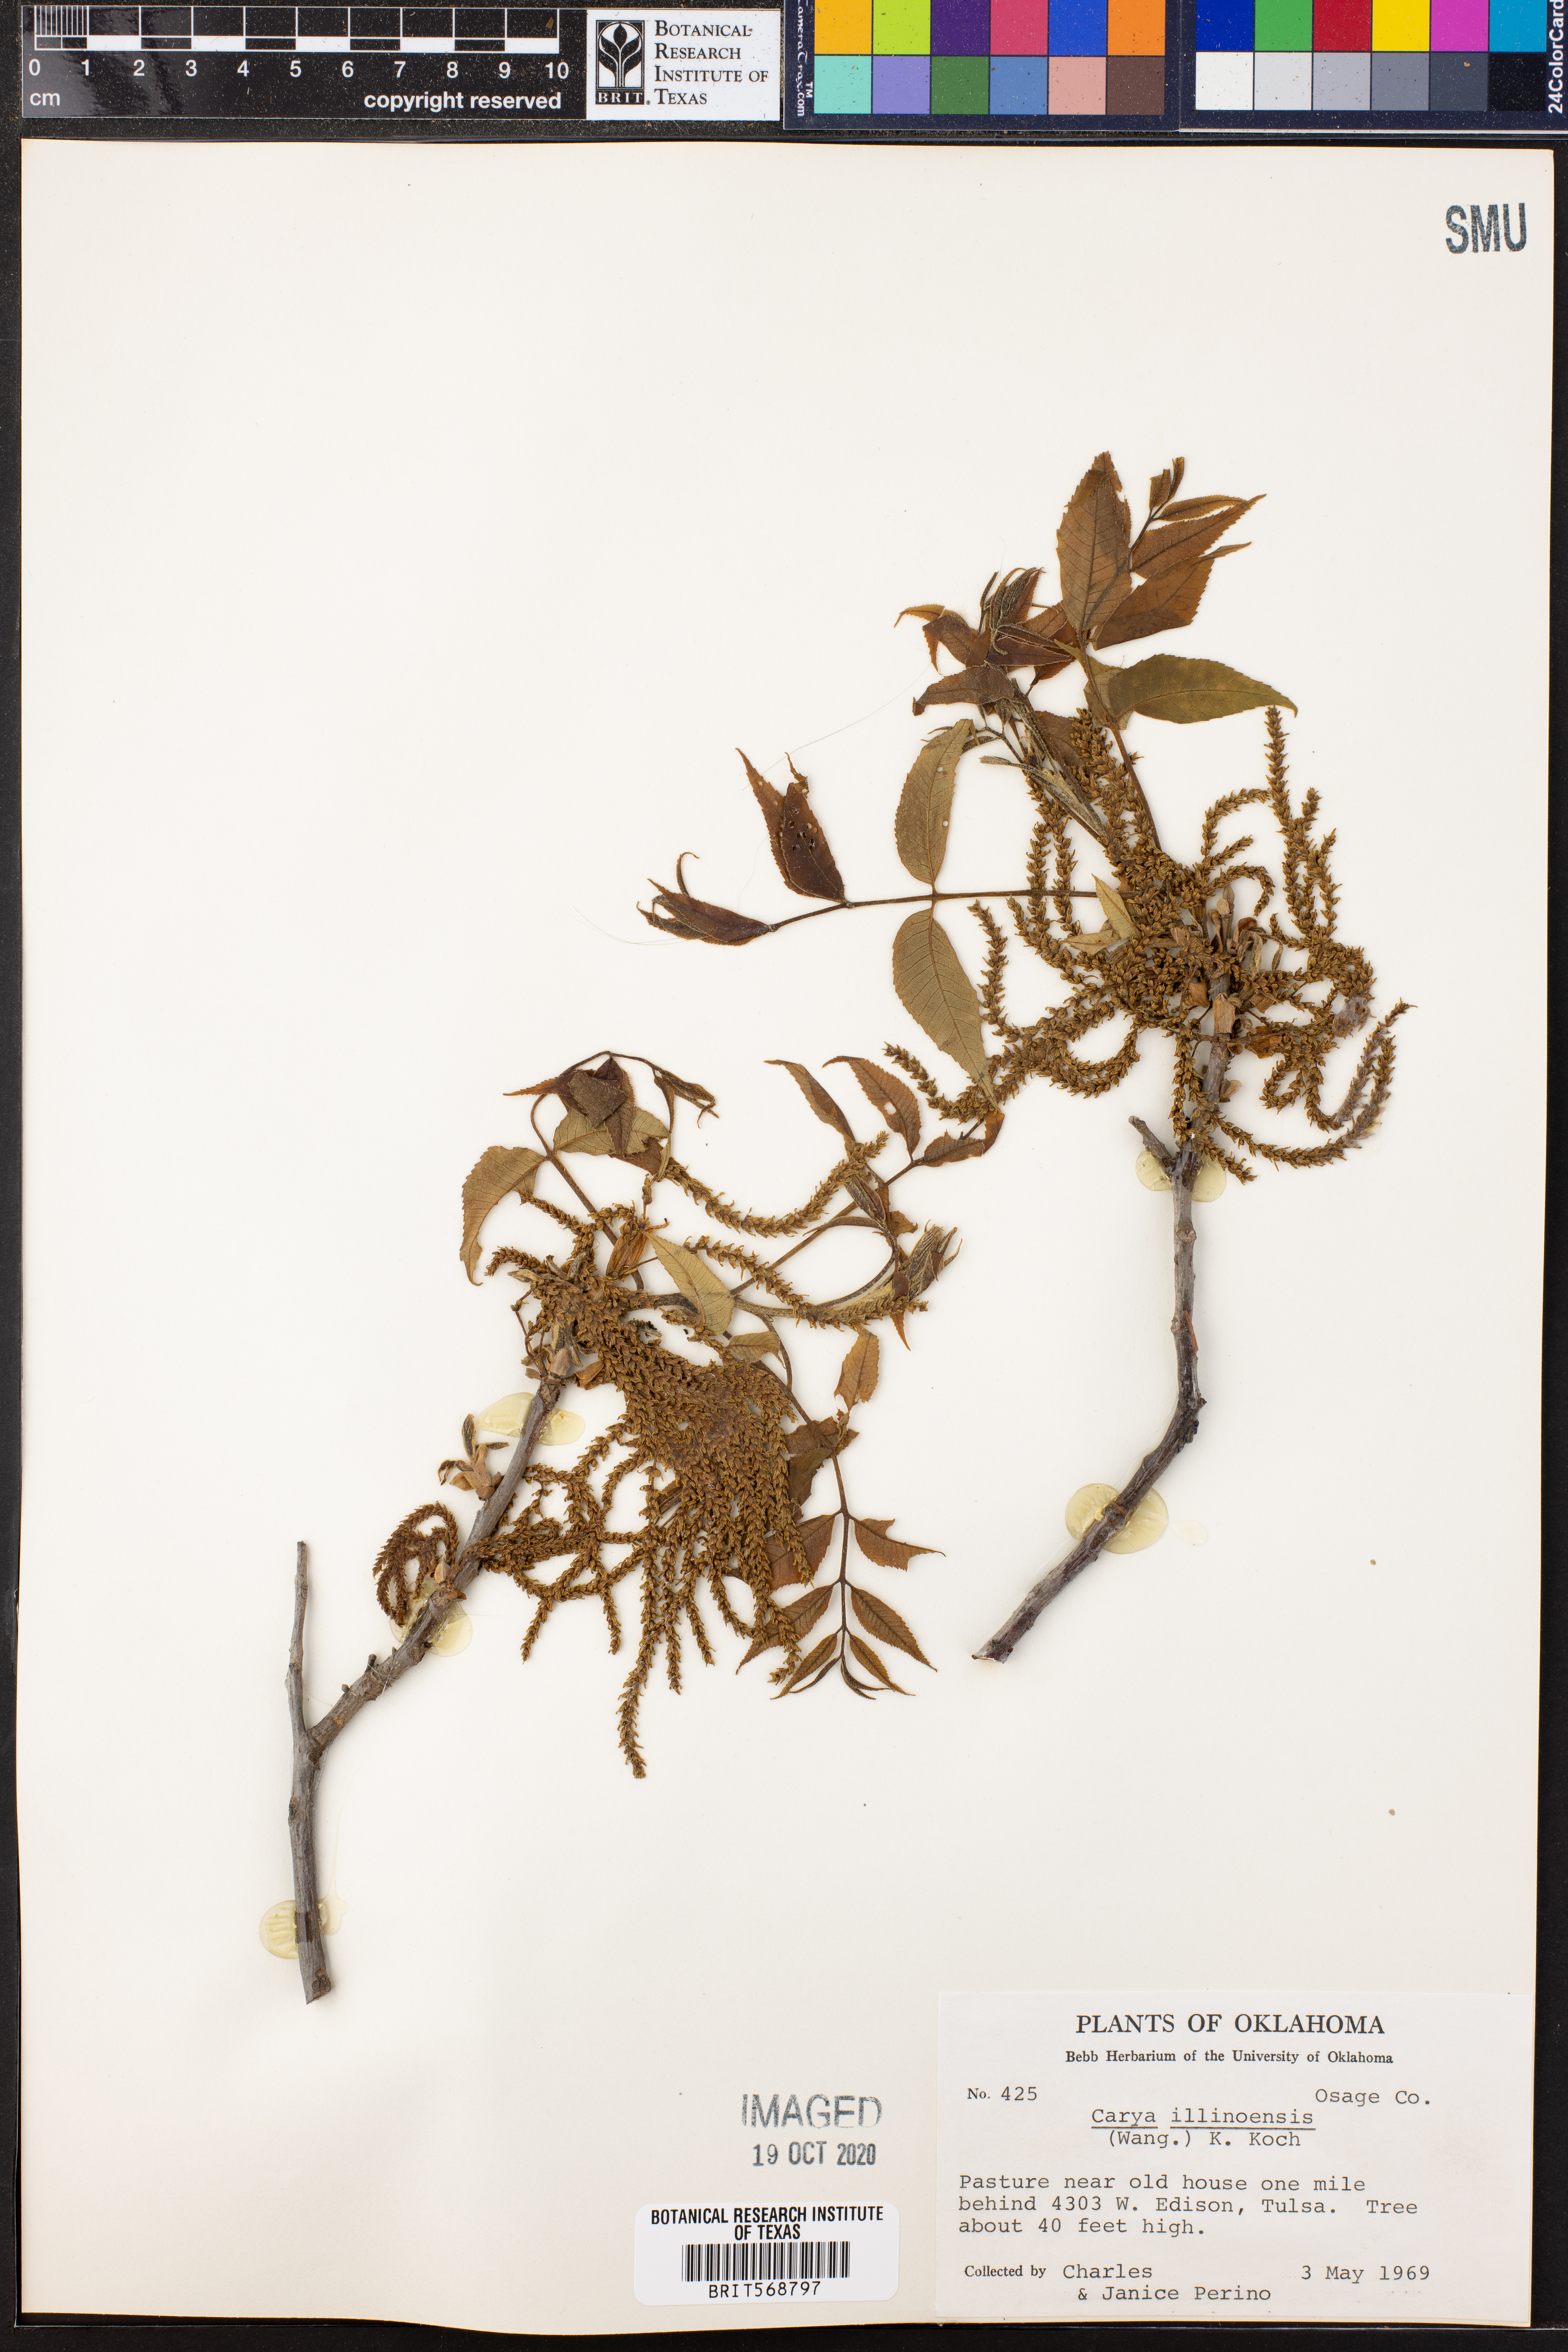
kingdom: Plantae
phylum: Tracheophyta
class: Magnoliopsida
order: Fagales
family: Juglandaceae
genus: Carya
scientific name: Carya
